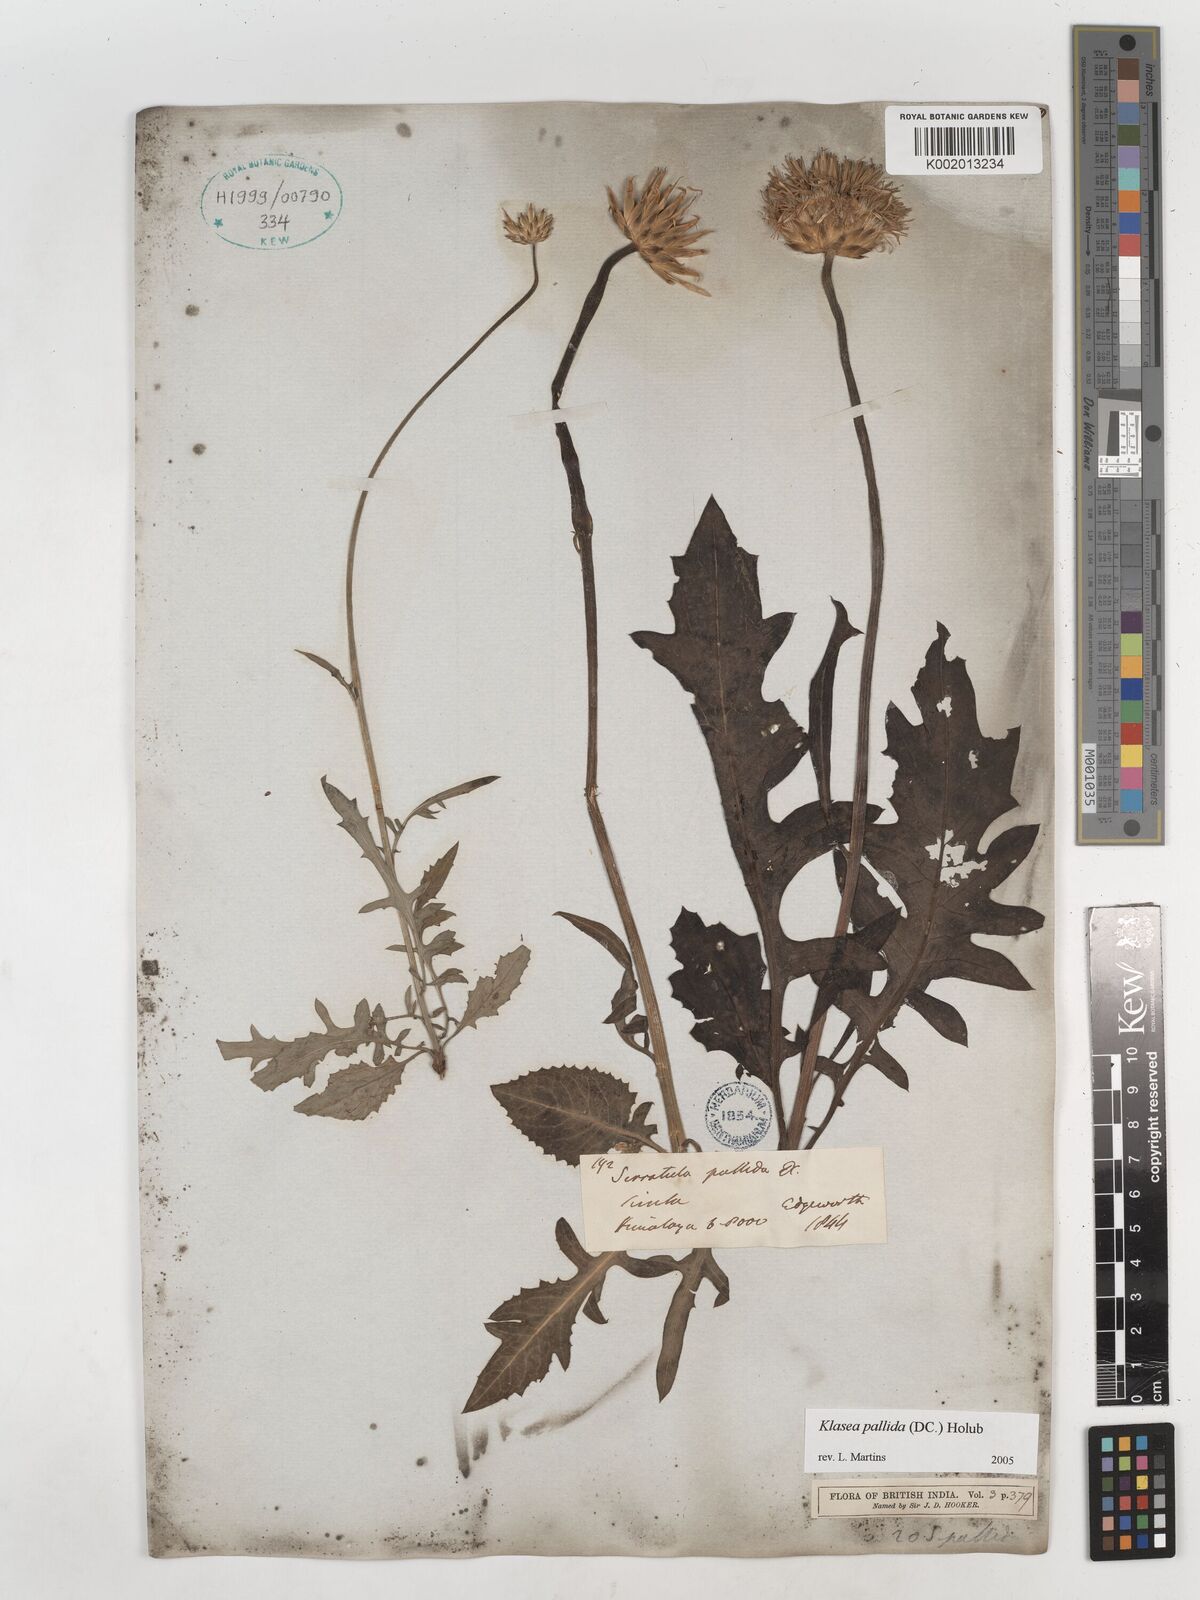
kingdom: Plantae
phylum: Tracheophyta
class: Magnoliopsida
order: Asterales
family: Asteraceae
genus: Klasea
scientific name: Klasea pallida
